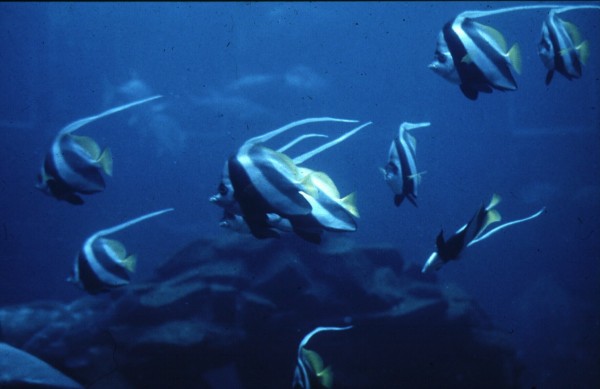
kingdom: Animalia
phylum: Chordata
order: Perciformes
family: Chaetodontidae
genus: Heniochus
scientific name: Heniochus acuminatus
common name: Pennant coralfish
